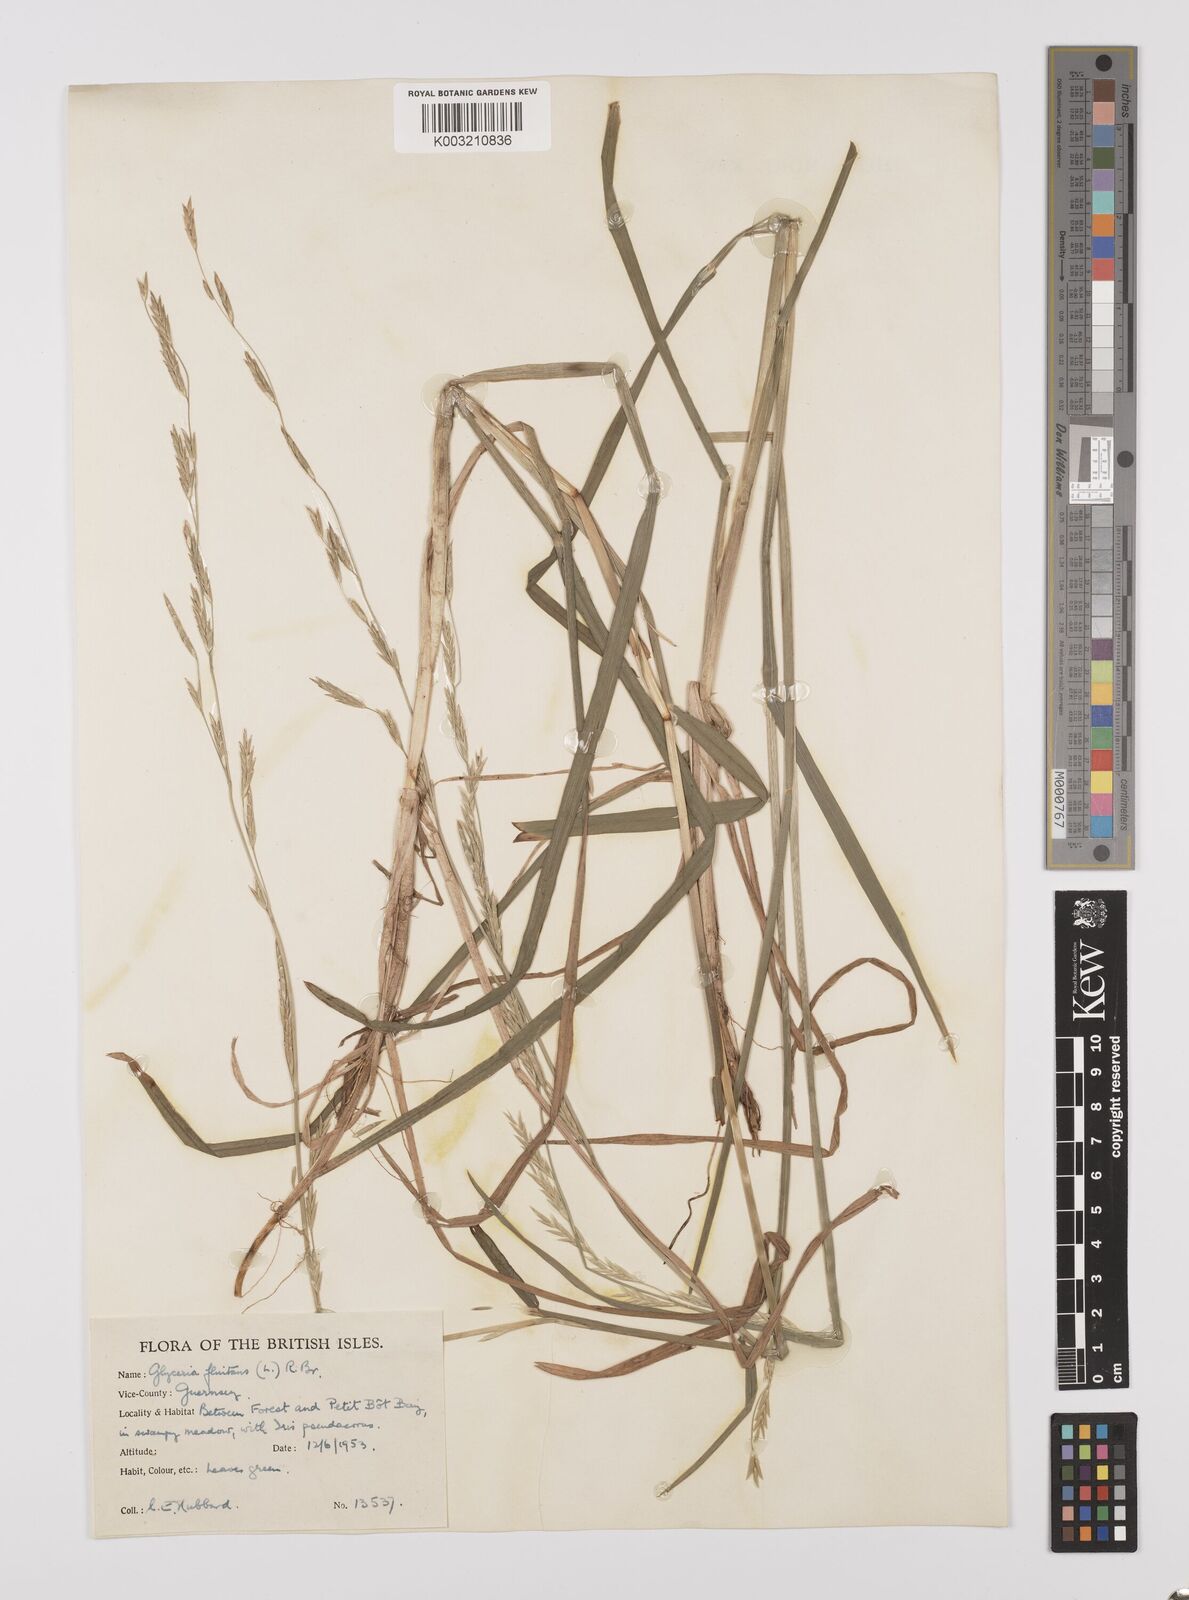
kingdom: Plantae
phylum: Tracheophyta
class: Liliopsida
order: Poales
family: Poaceae
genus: Glyceria
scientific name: Glyceria fluitans
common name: Floating sweet-grass
